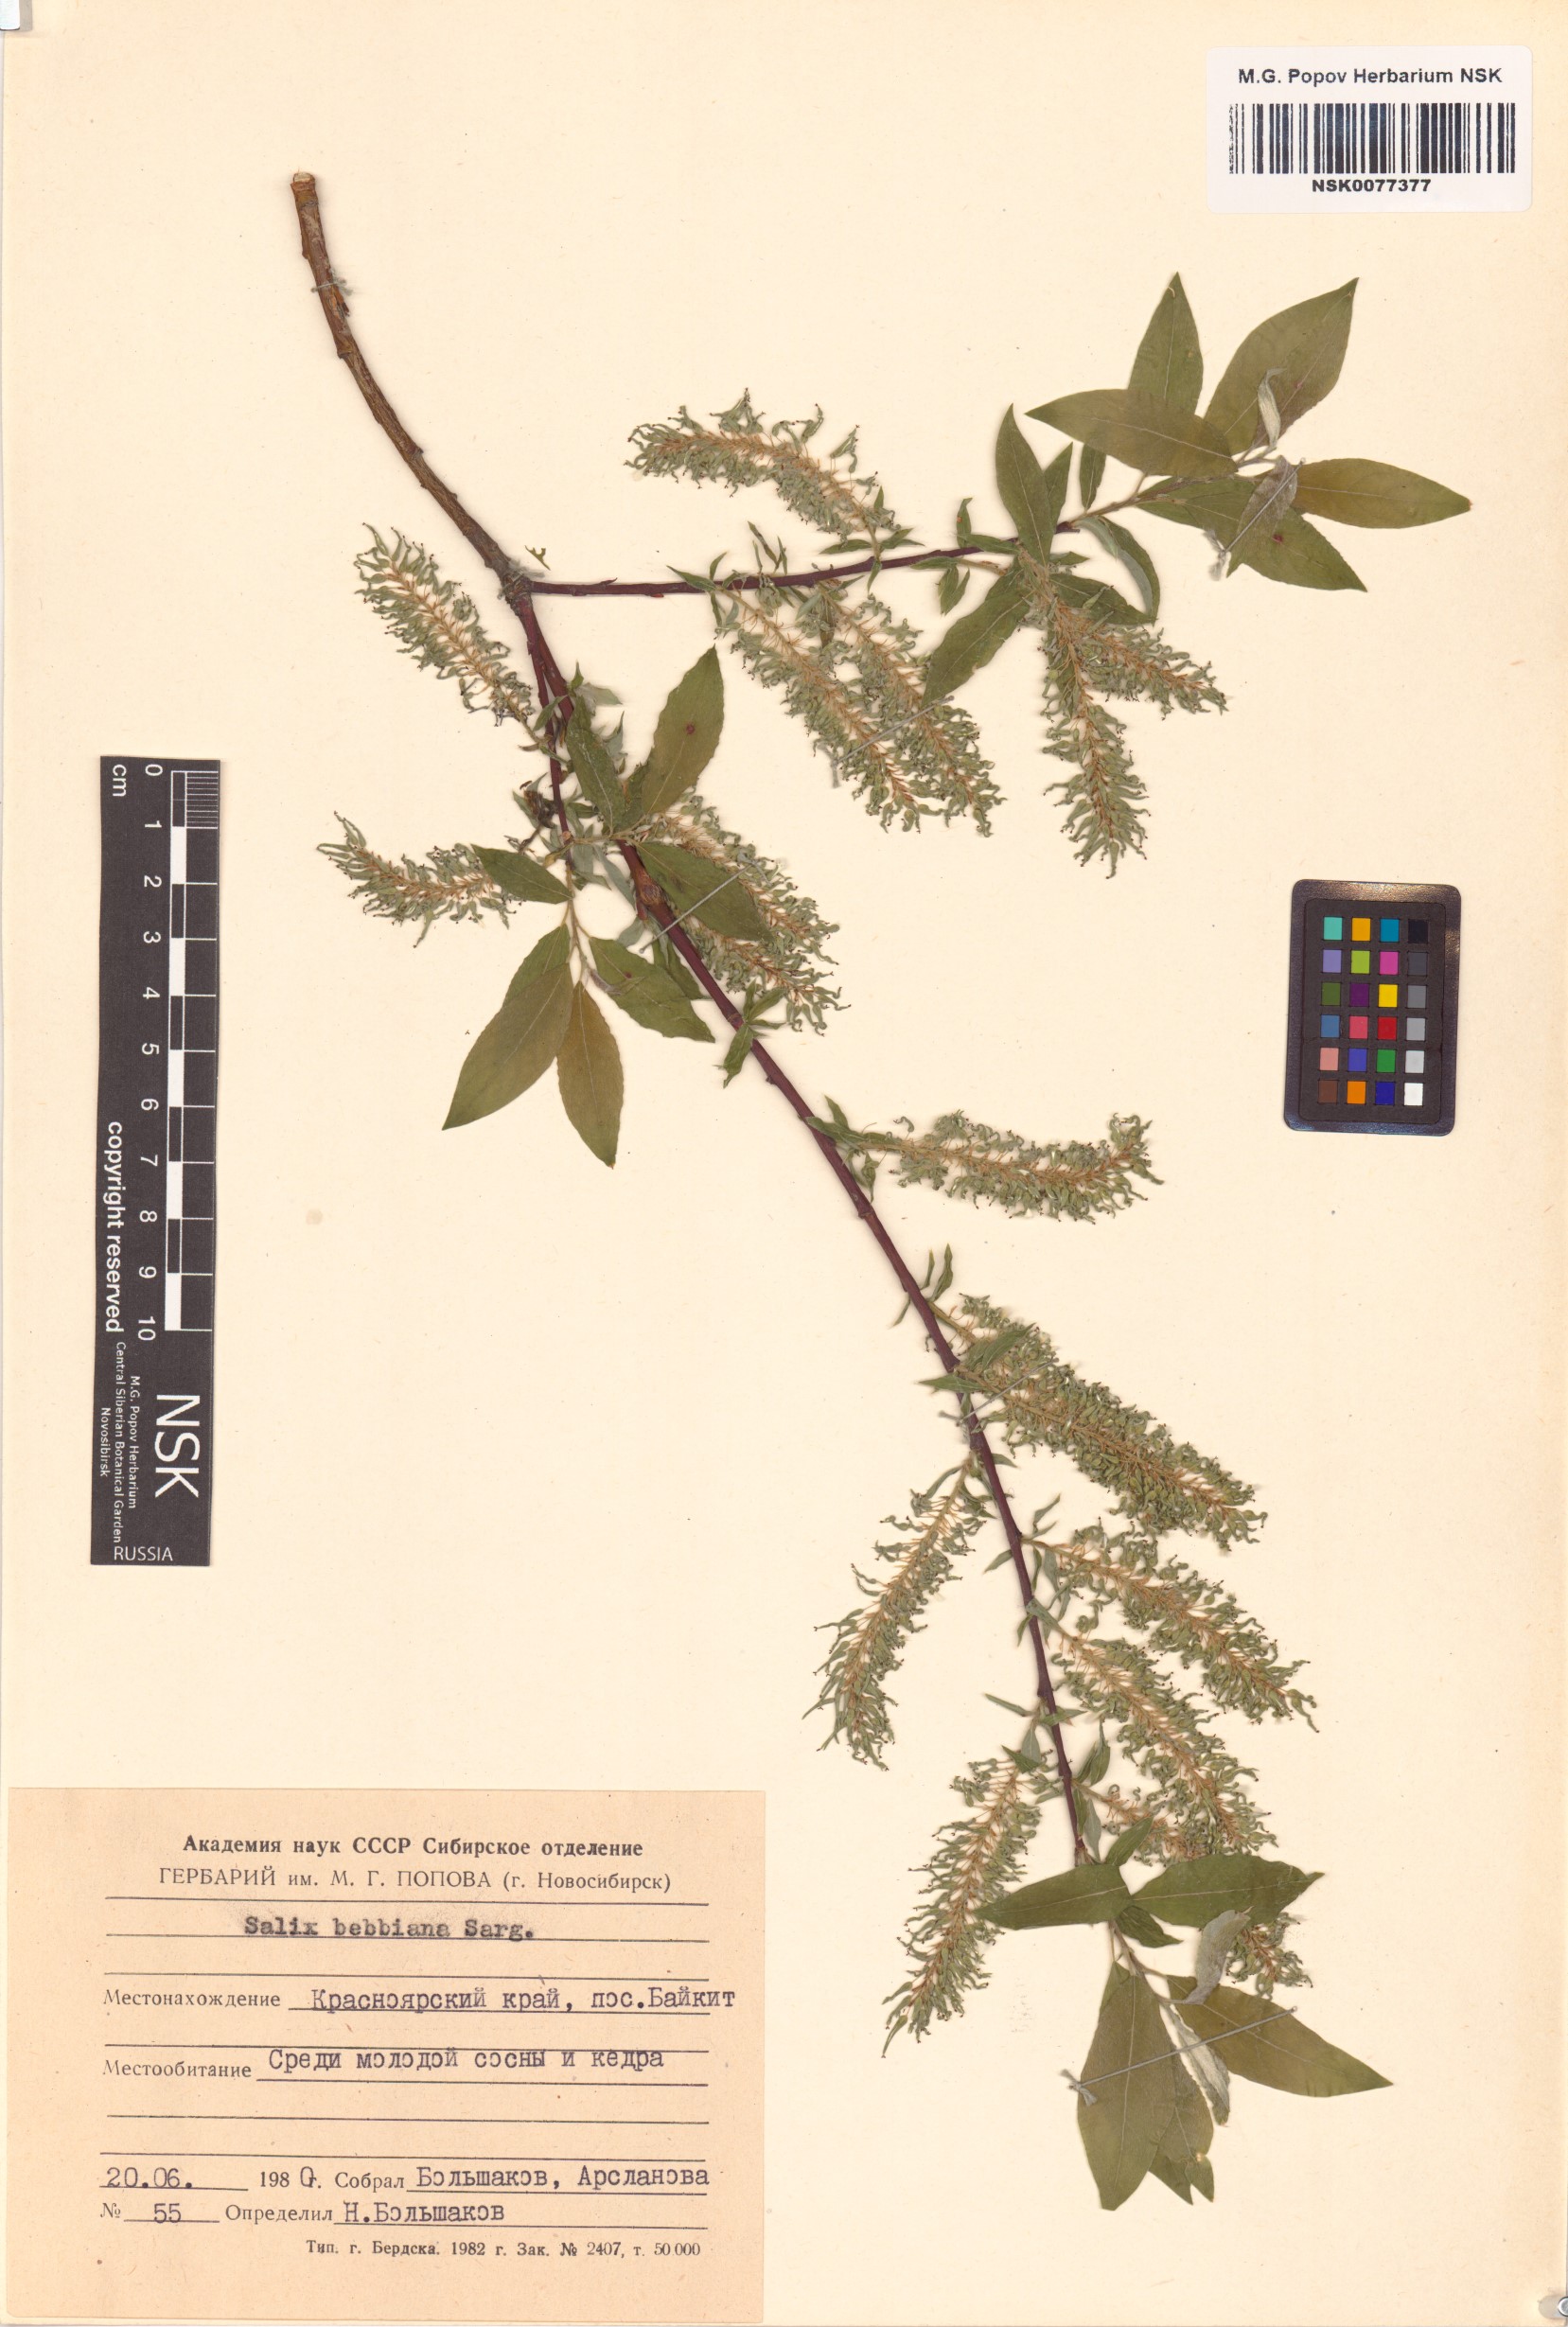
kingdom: Plantae
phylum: Tracheophyta
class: Magnoliopsida
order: Malpighiales
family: Salicaceae
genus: Salix
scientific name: Salix bebbiana
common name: Bebb's willow
